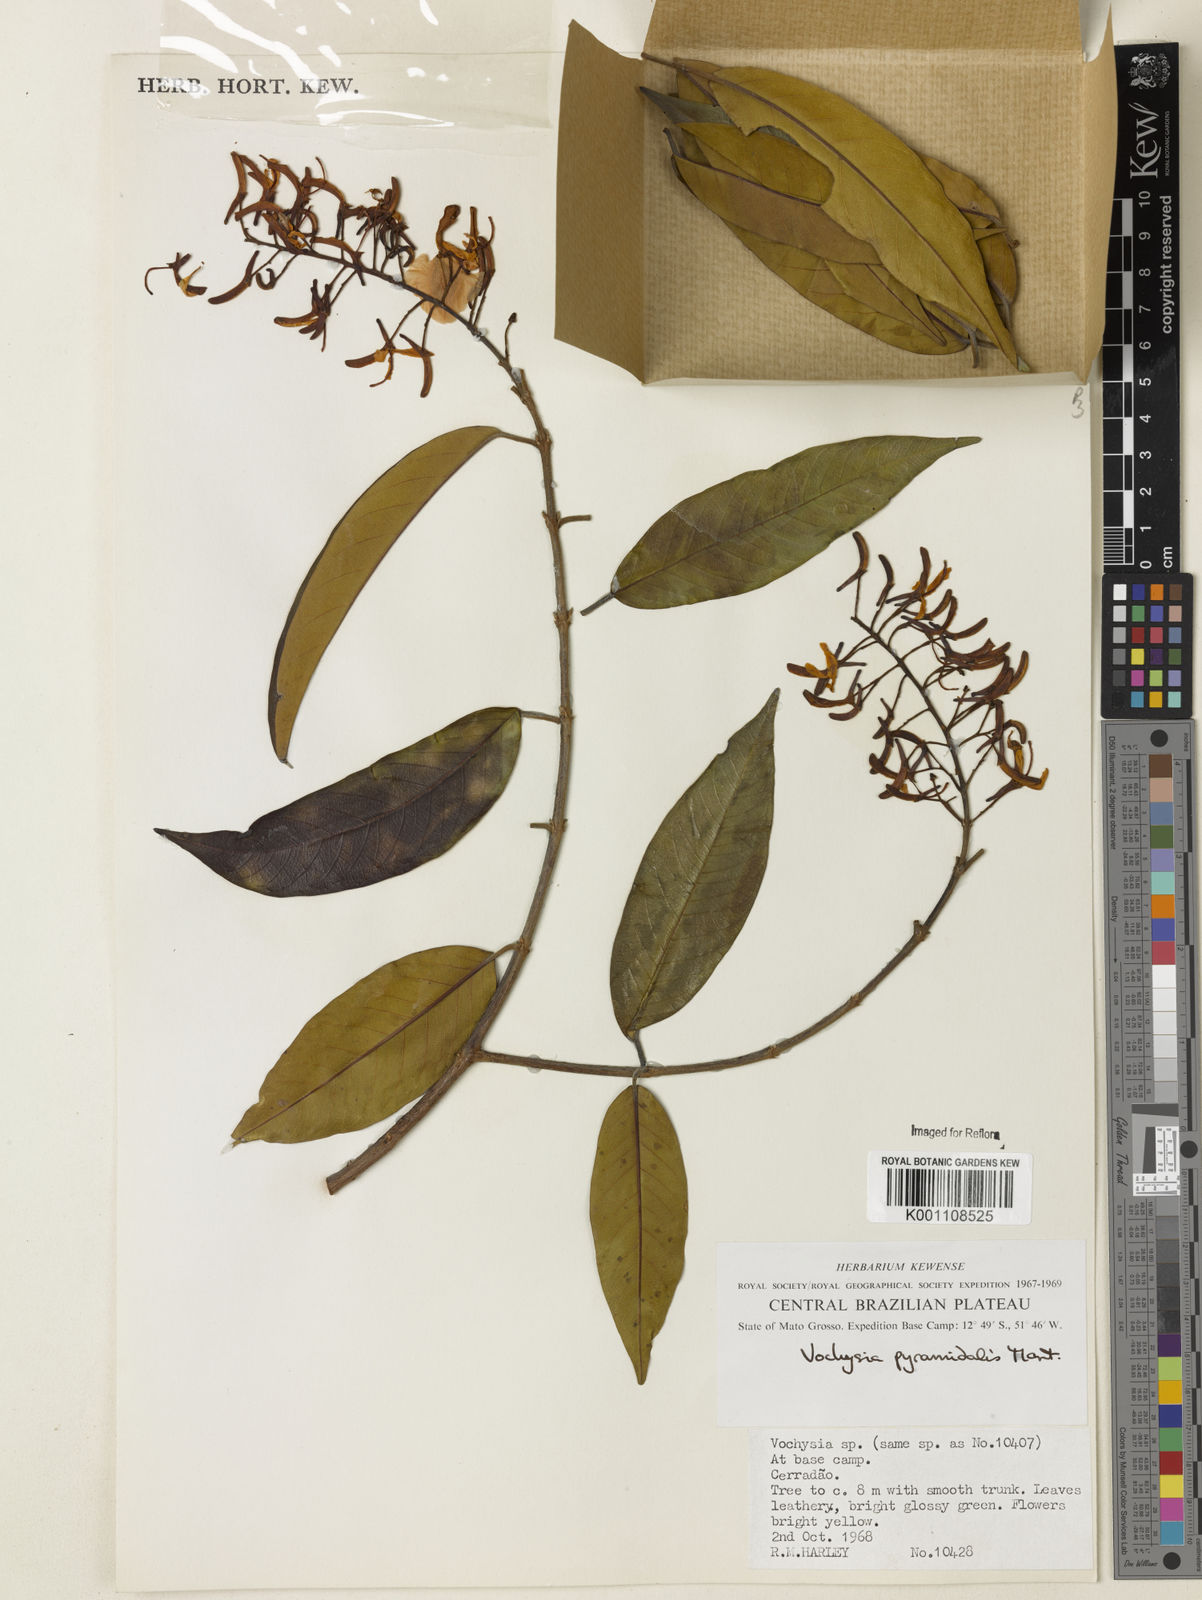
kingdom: Plantae
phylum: Tracheophyta
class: Magnoliopsida
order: Myrtales
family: Vochysiaceae
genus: Vochysia
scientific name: Vochysia pyramidalis
